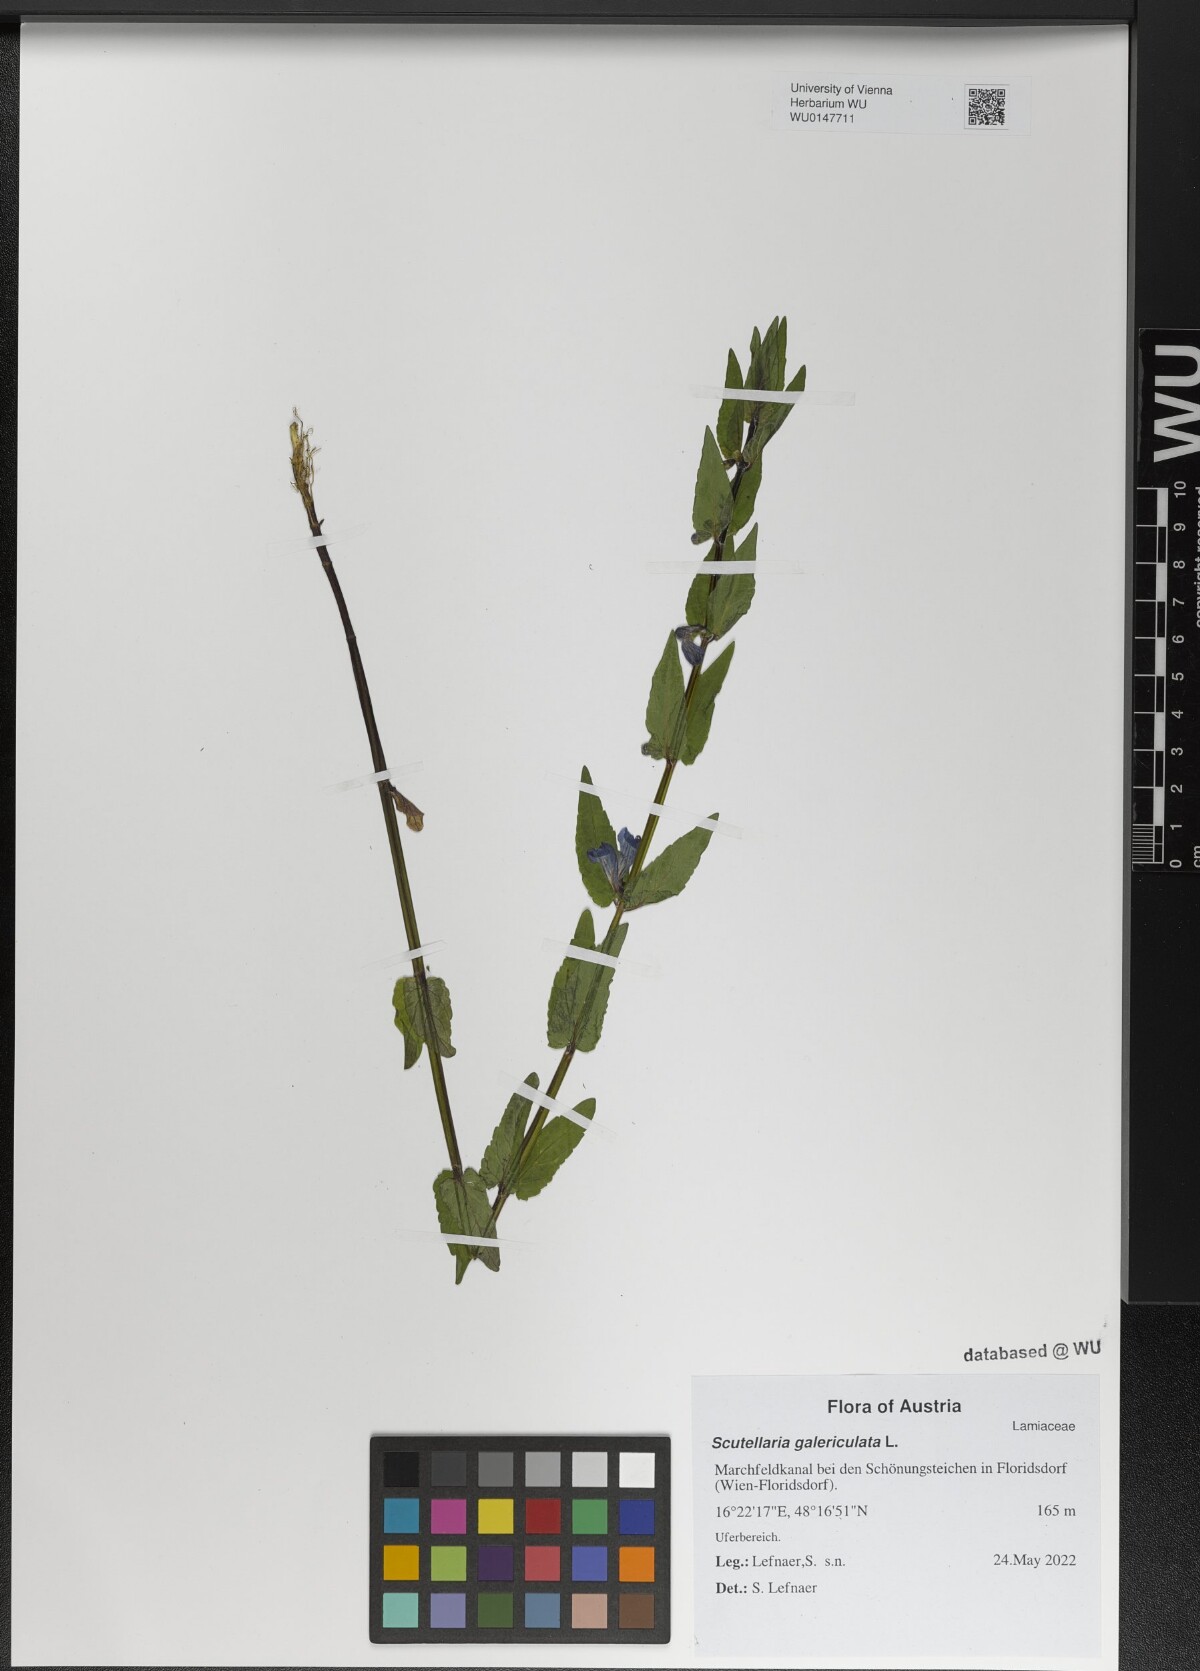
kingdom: Plantae
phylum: Tracheophyta
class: Magnoliopsida
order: Lamiales
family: Lamiaceae
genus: Scutellaria
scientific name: Scutellaria galericulata
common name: Skullcap
